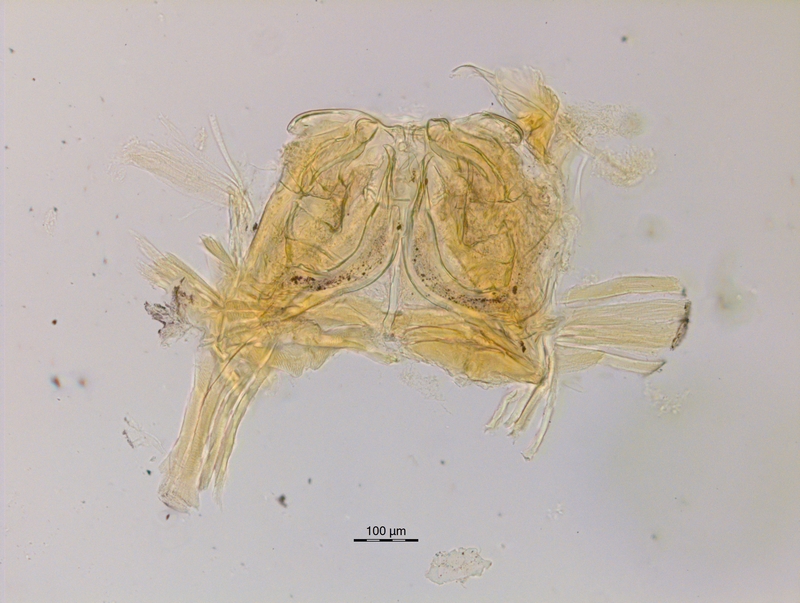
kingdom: Animalia
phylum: Arthropoda
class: Diplopoda
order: Chordeumatida
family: Craspedosomatidae
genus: Ochogona
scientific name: Ochogona caroli
